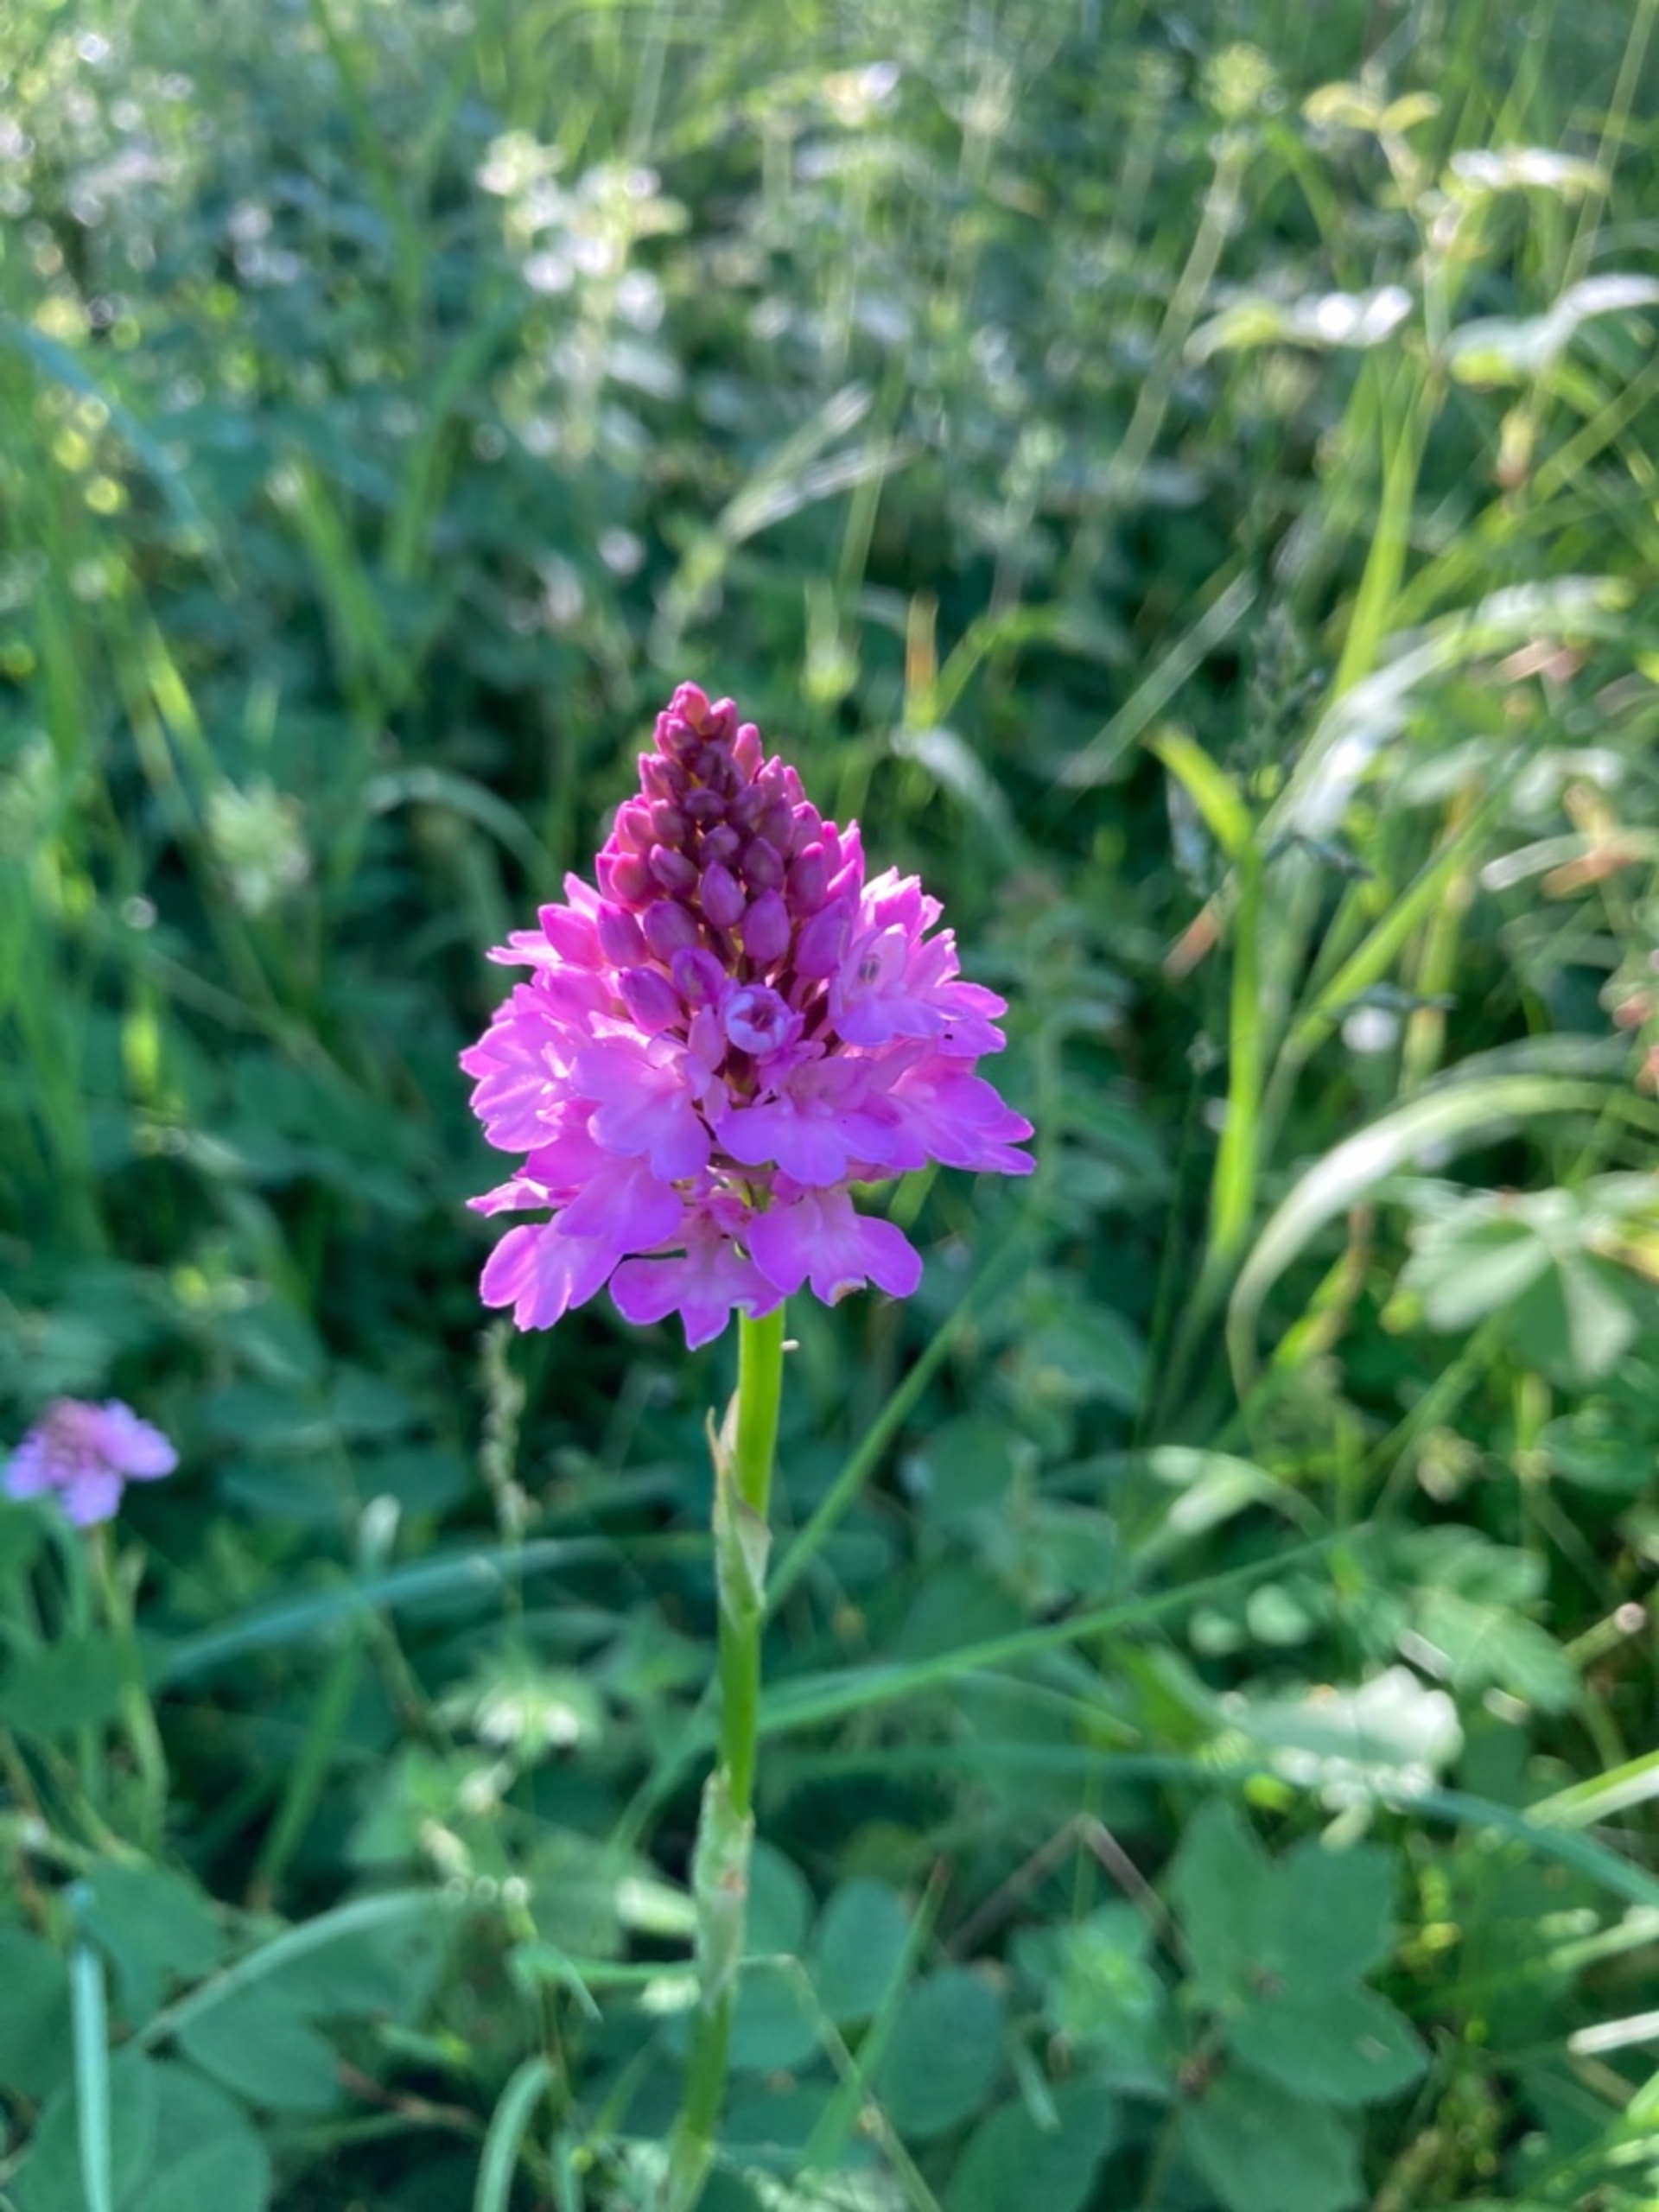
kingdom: Plantae
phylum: Tracheophyta
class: Liliopsida
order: Asparagales
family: Orchidaceae
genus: Anacamptis
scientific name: Anacamptis pyramidalis
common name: Horndrager
